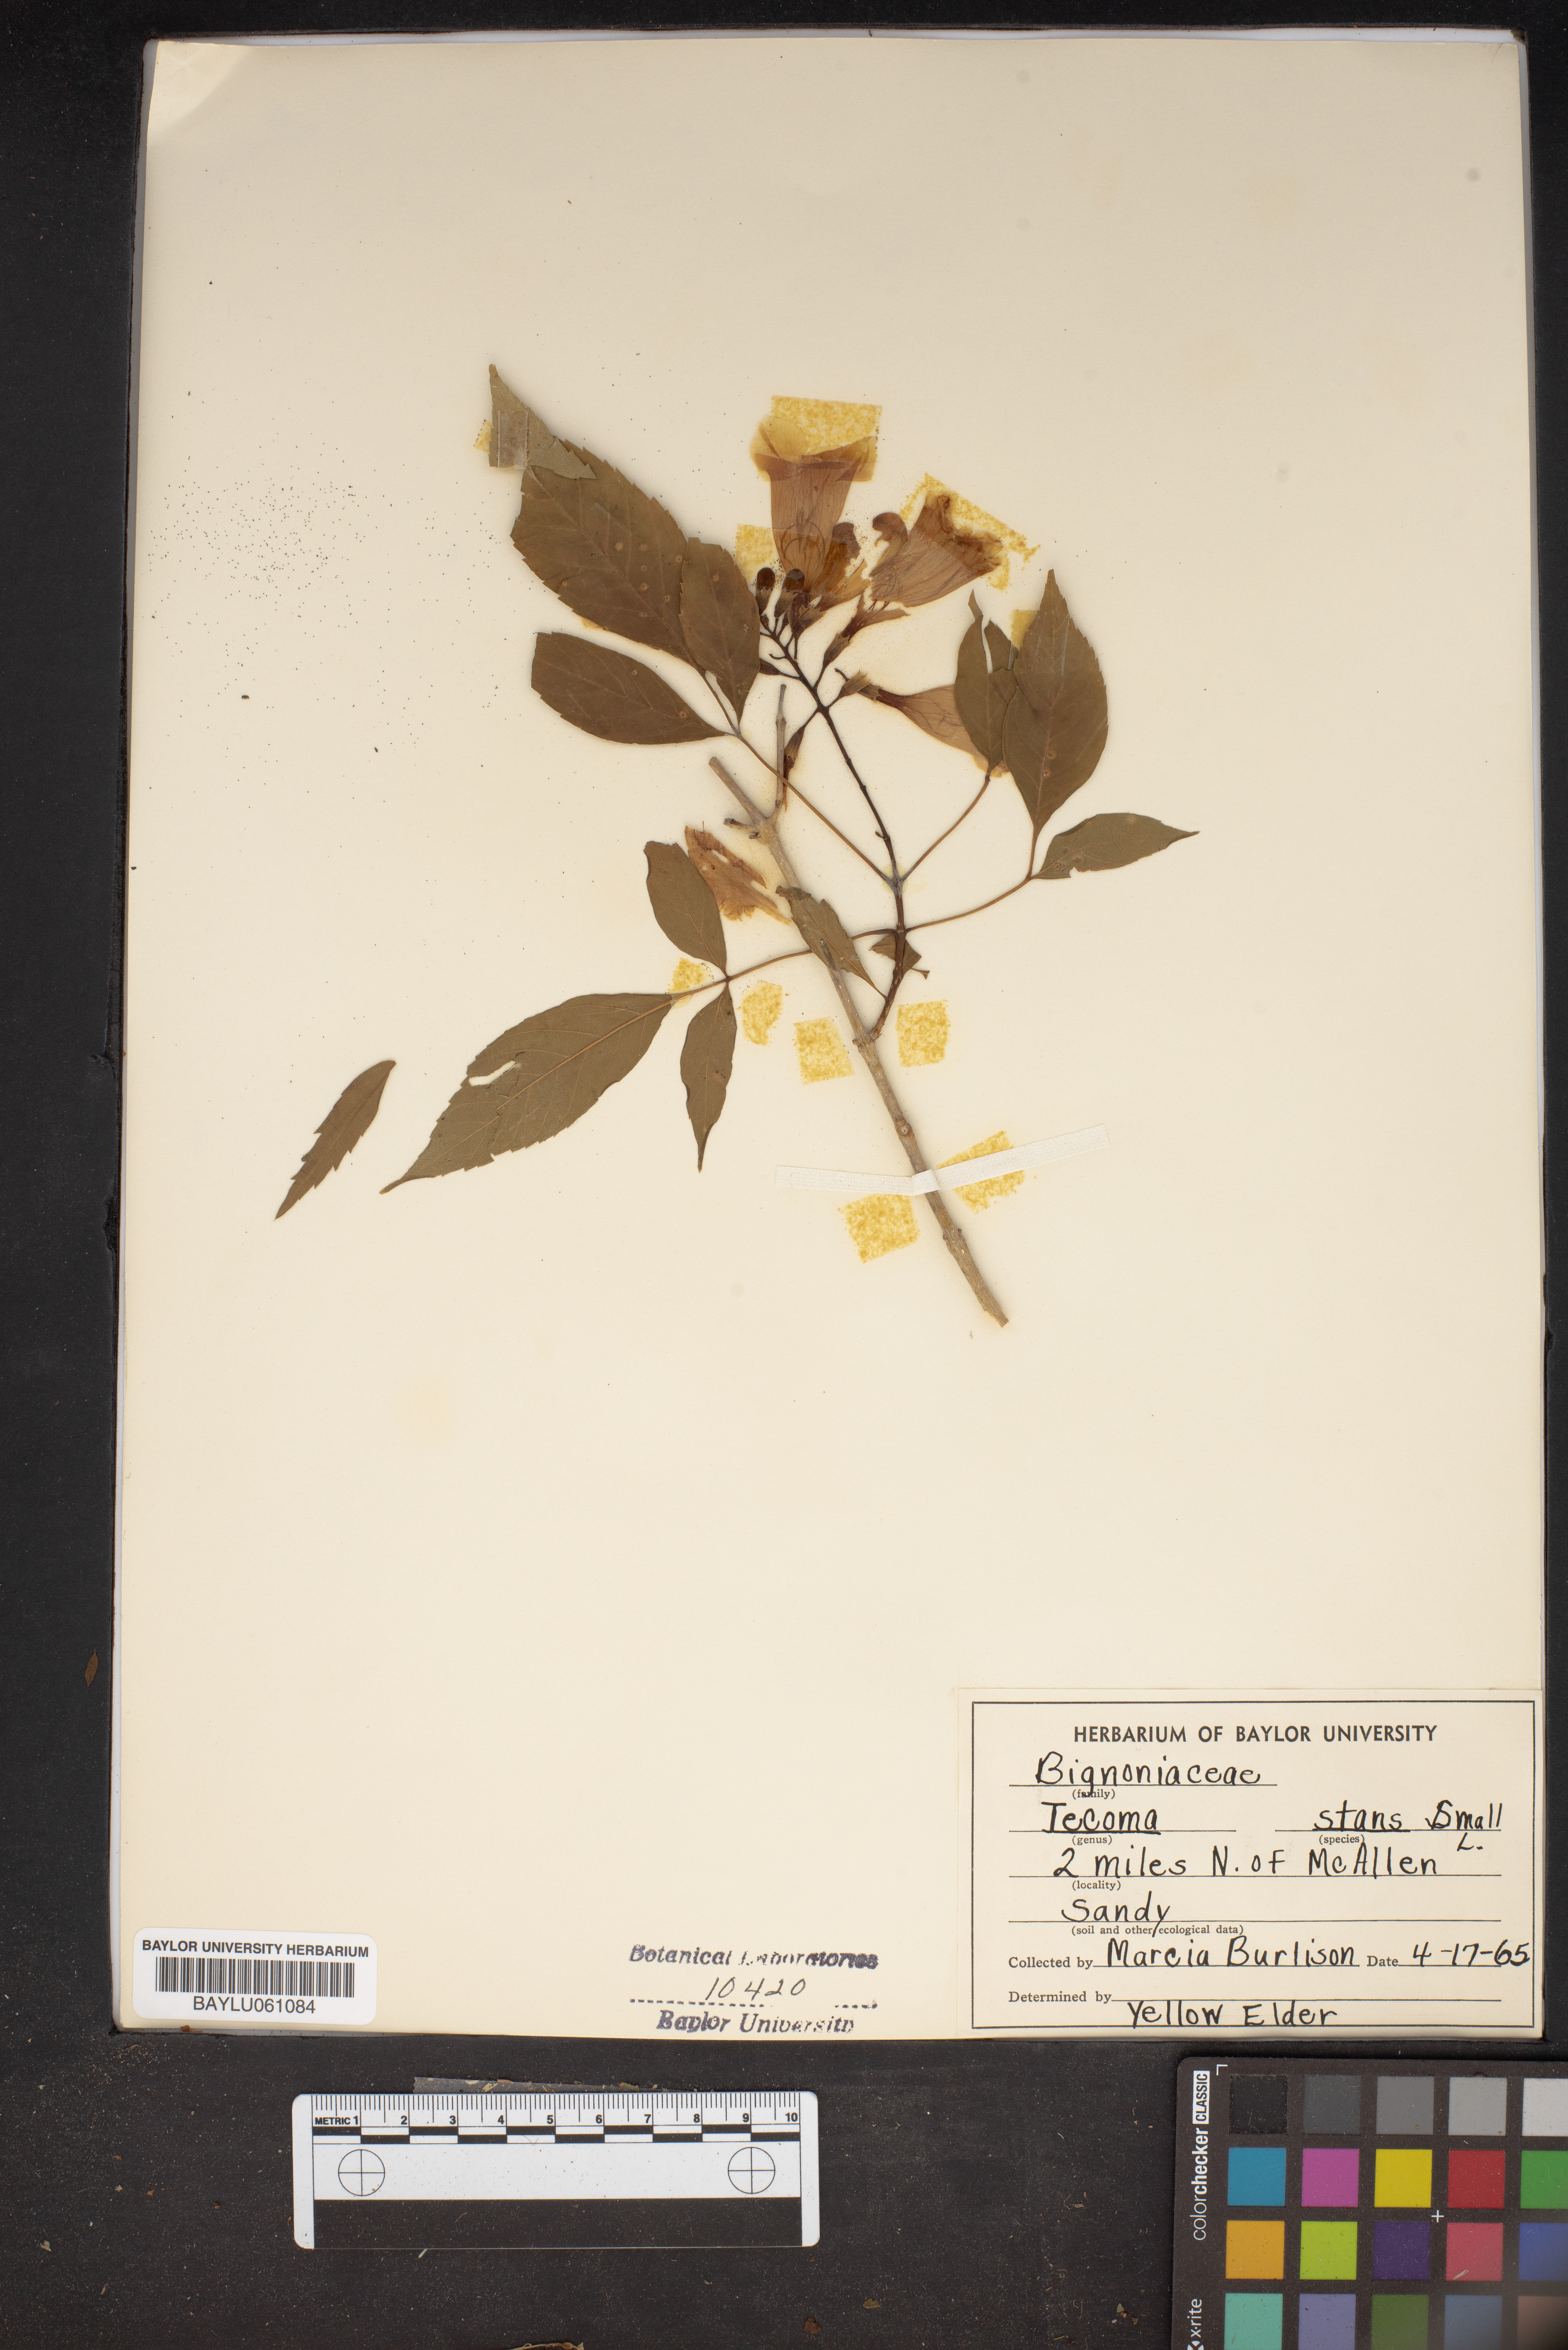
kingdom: Plantae
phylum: Tracheophyta
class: Magnoliopsida
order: Lamiales
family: Bignoniaceae
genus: Tecoma
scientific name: Tecoma stans
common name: Yellow trumpetbush
